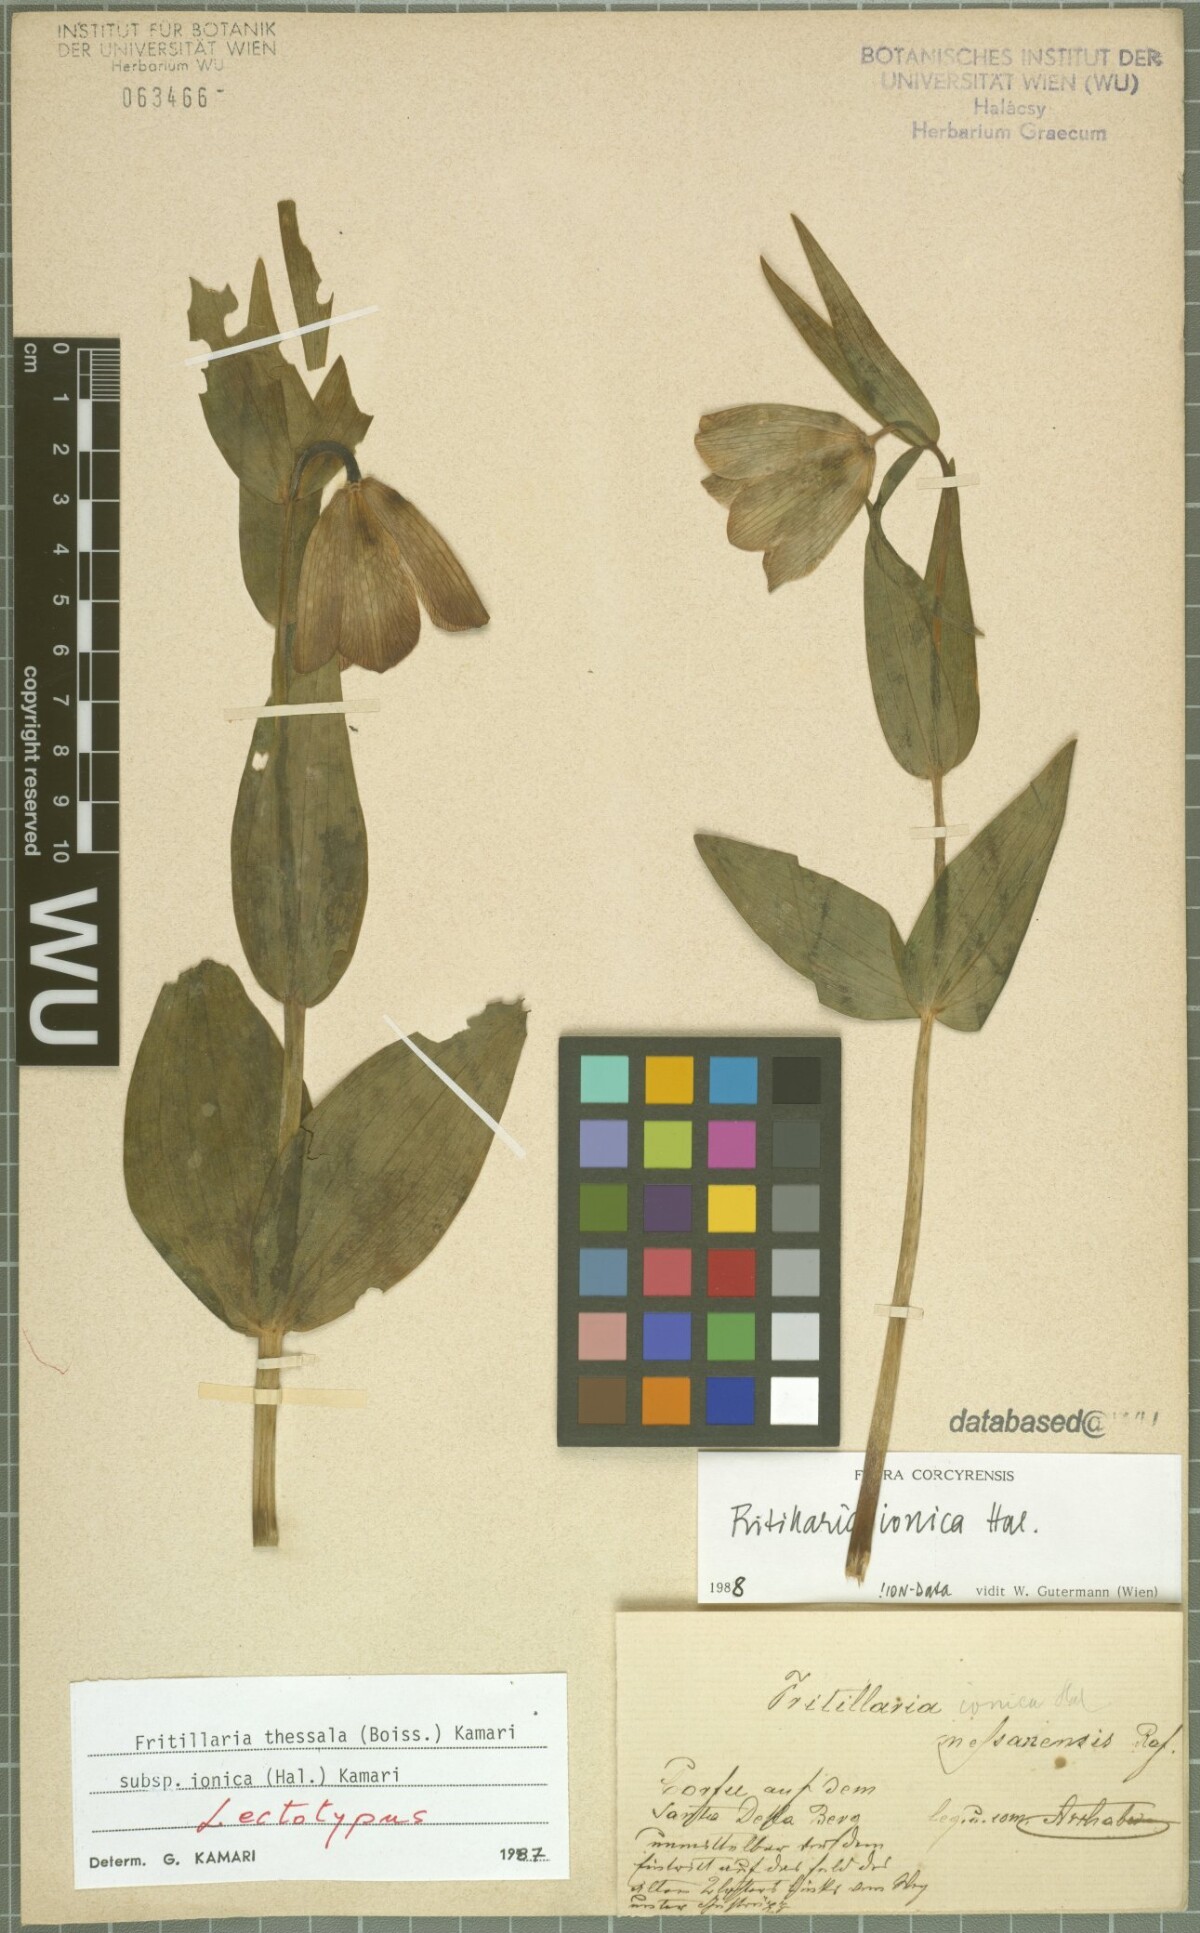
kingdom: Plantae
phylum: Tracheophyta
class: Liliopsida
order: Liliales
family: Liliaceae
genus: Fritillaria
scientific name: Fritillaria graeca
